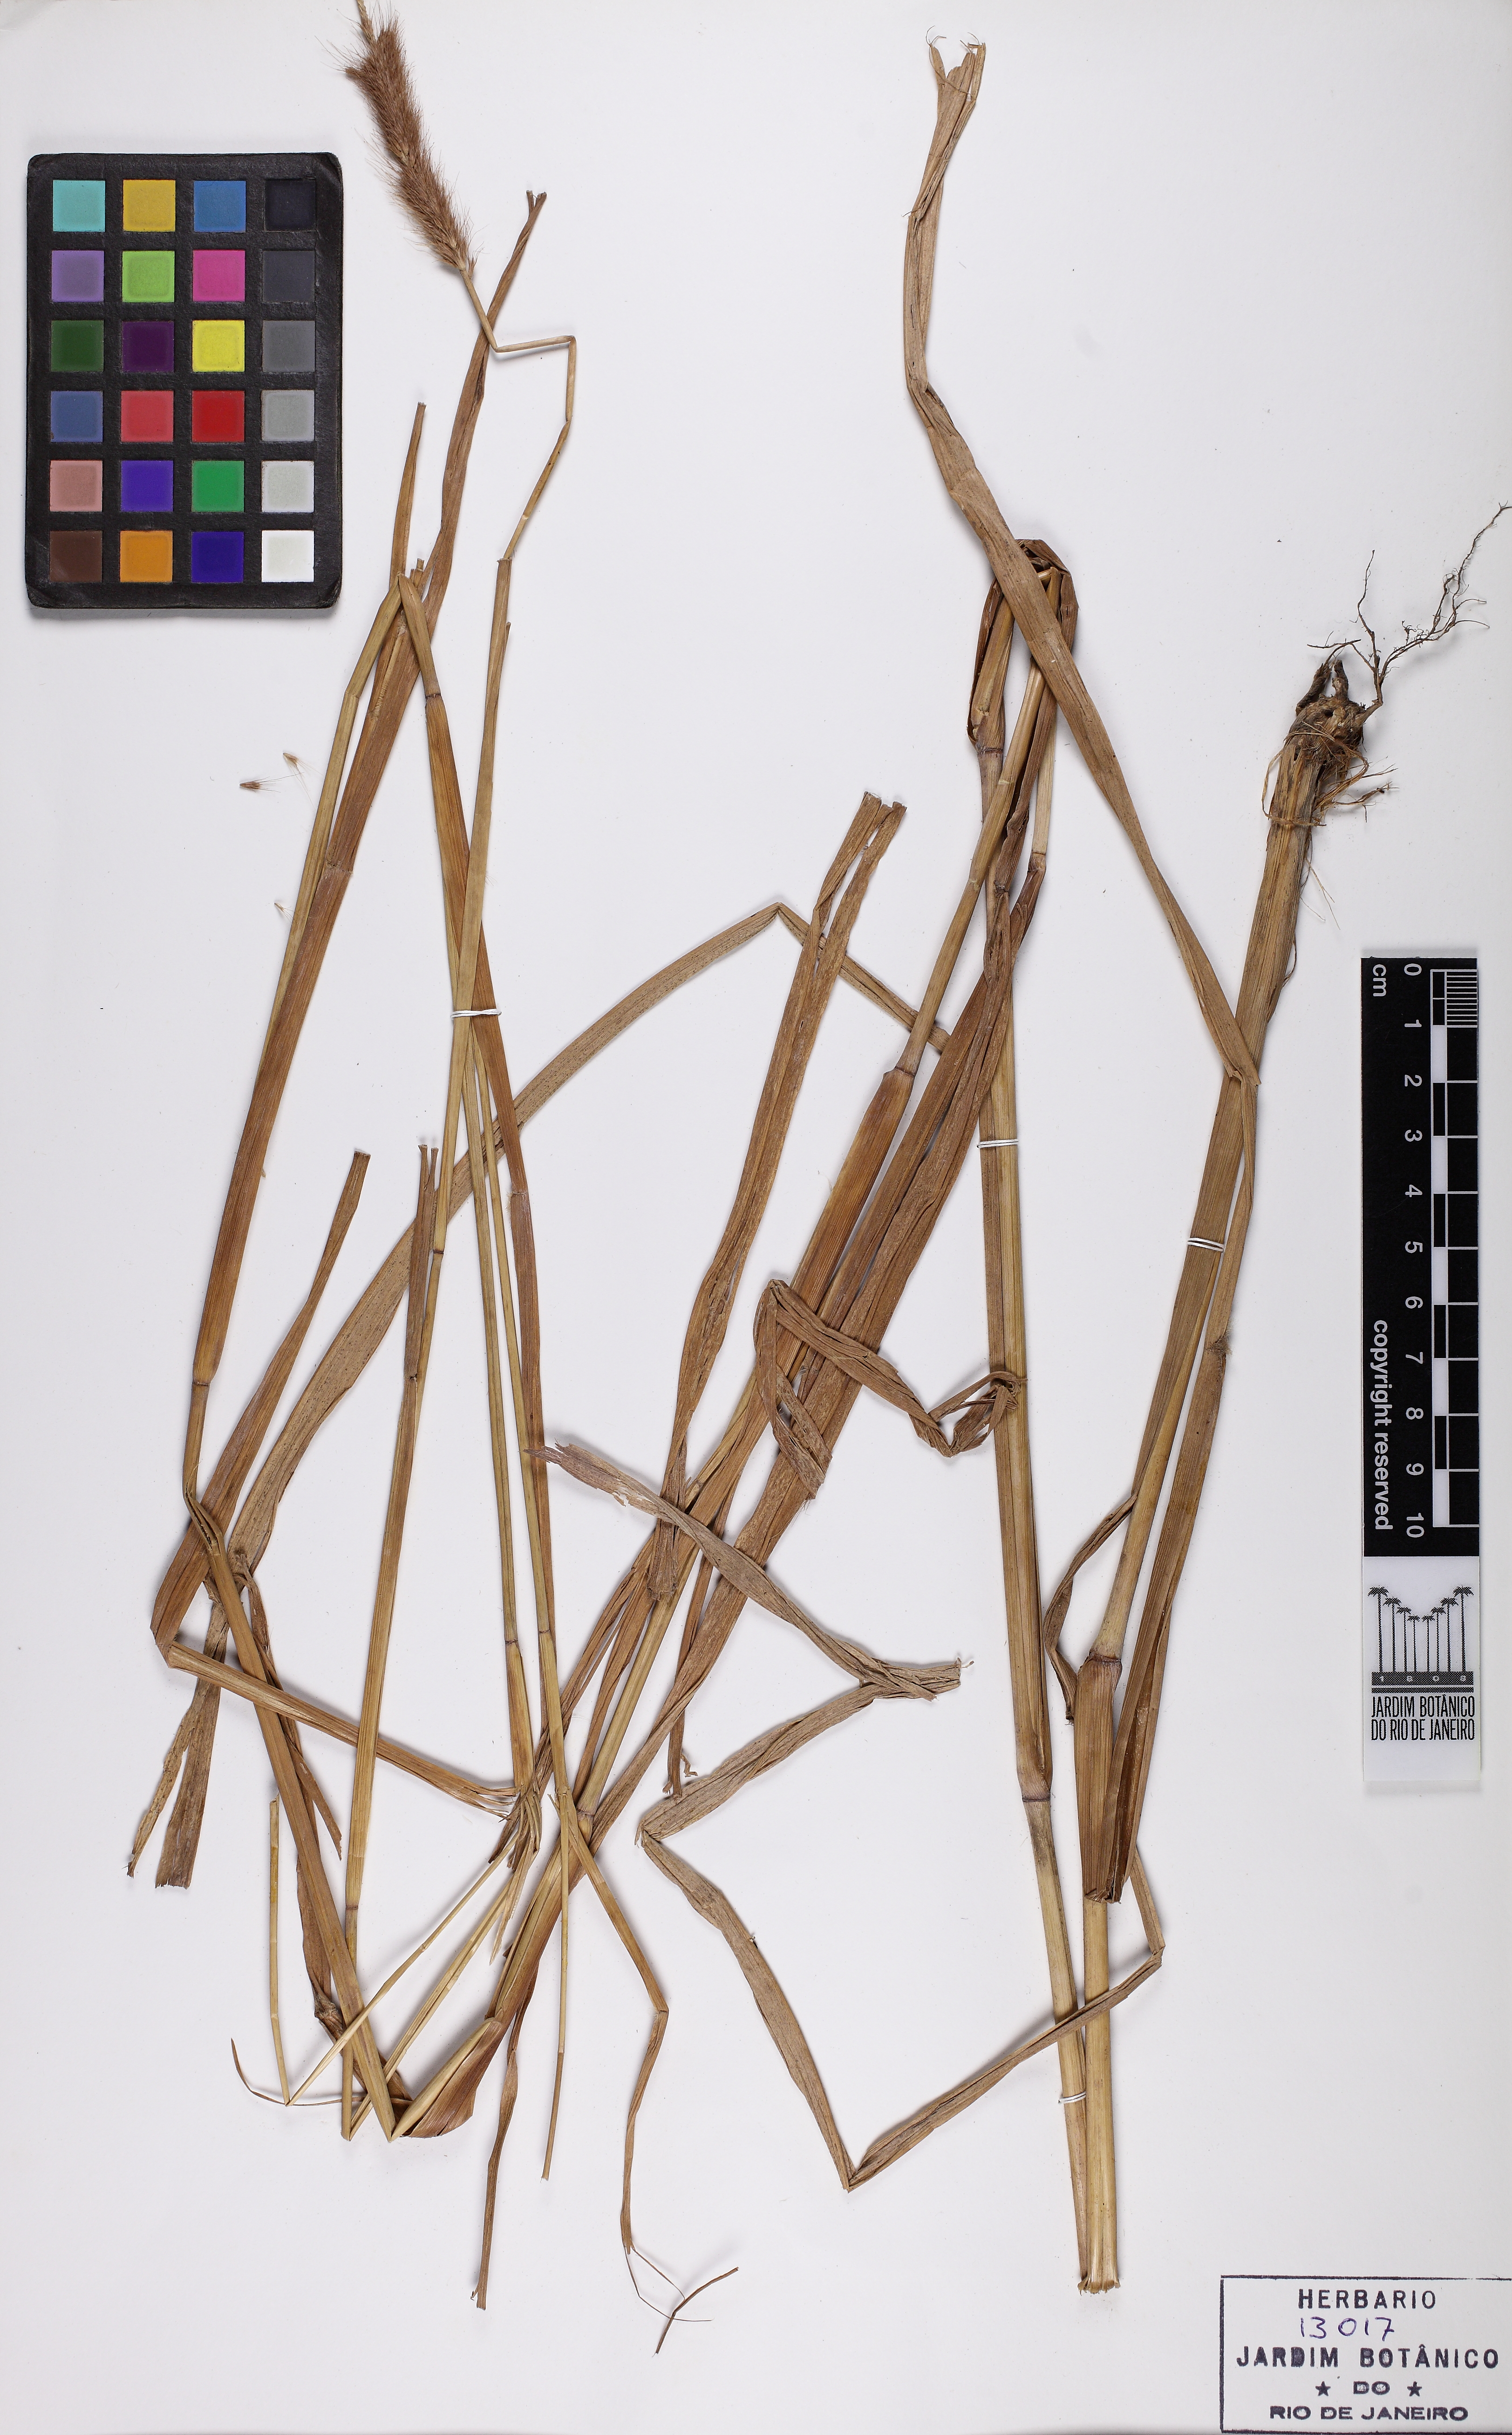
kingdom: Plantae
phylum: Tracheophyta
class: Liliopsida
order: Poales
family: Poaceae
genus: Cenchrus
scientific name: Cenchrus setosus
